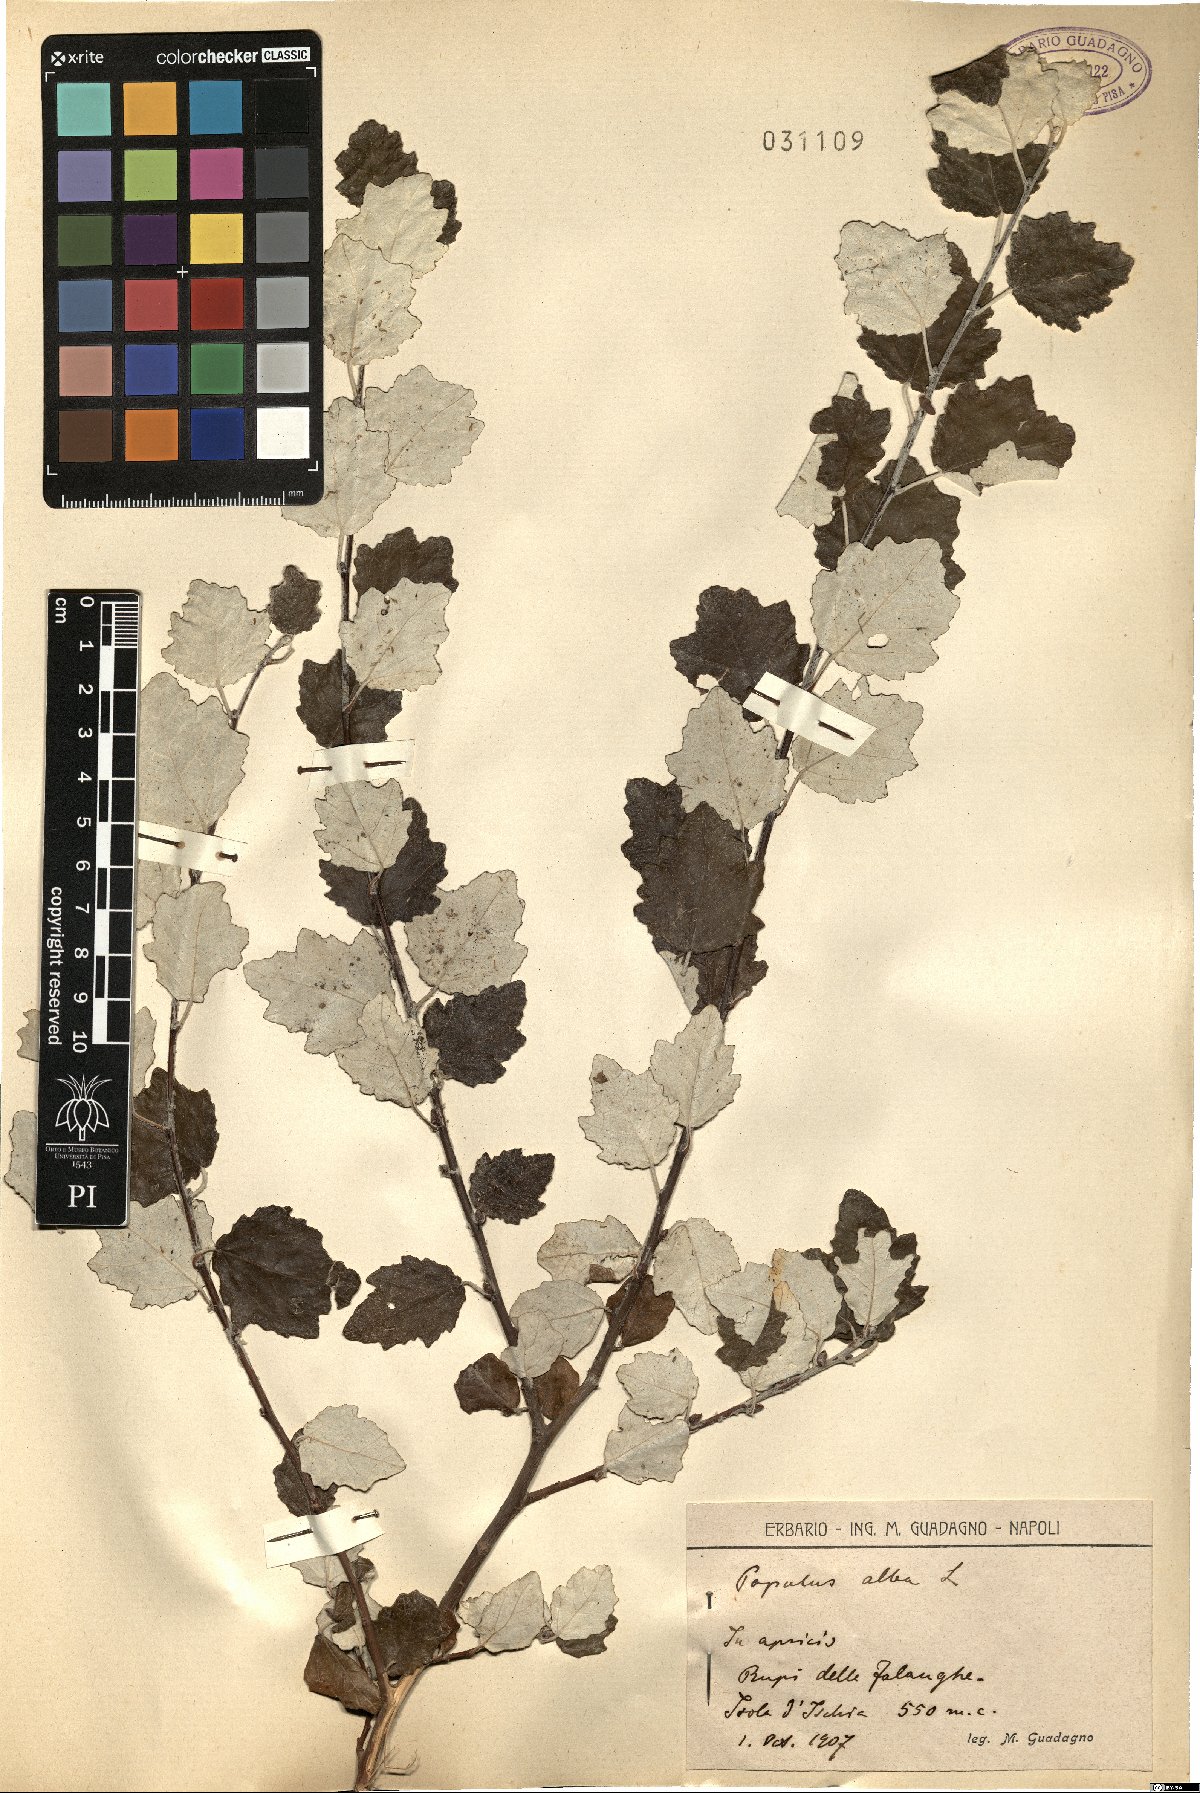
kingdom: Plantae
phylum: Tracheophyta
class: Magnoliopsida
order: Malpighiales
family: Salicaceae
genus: Populus
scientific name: Populus alba
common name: White poplar
